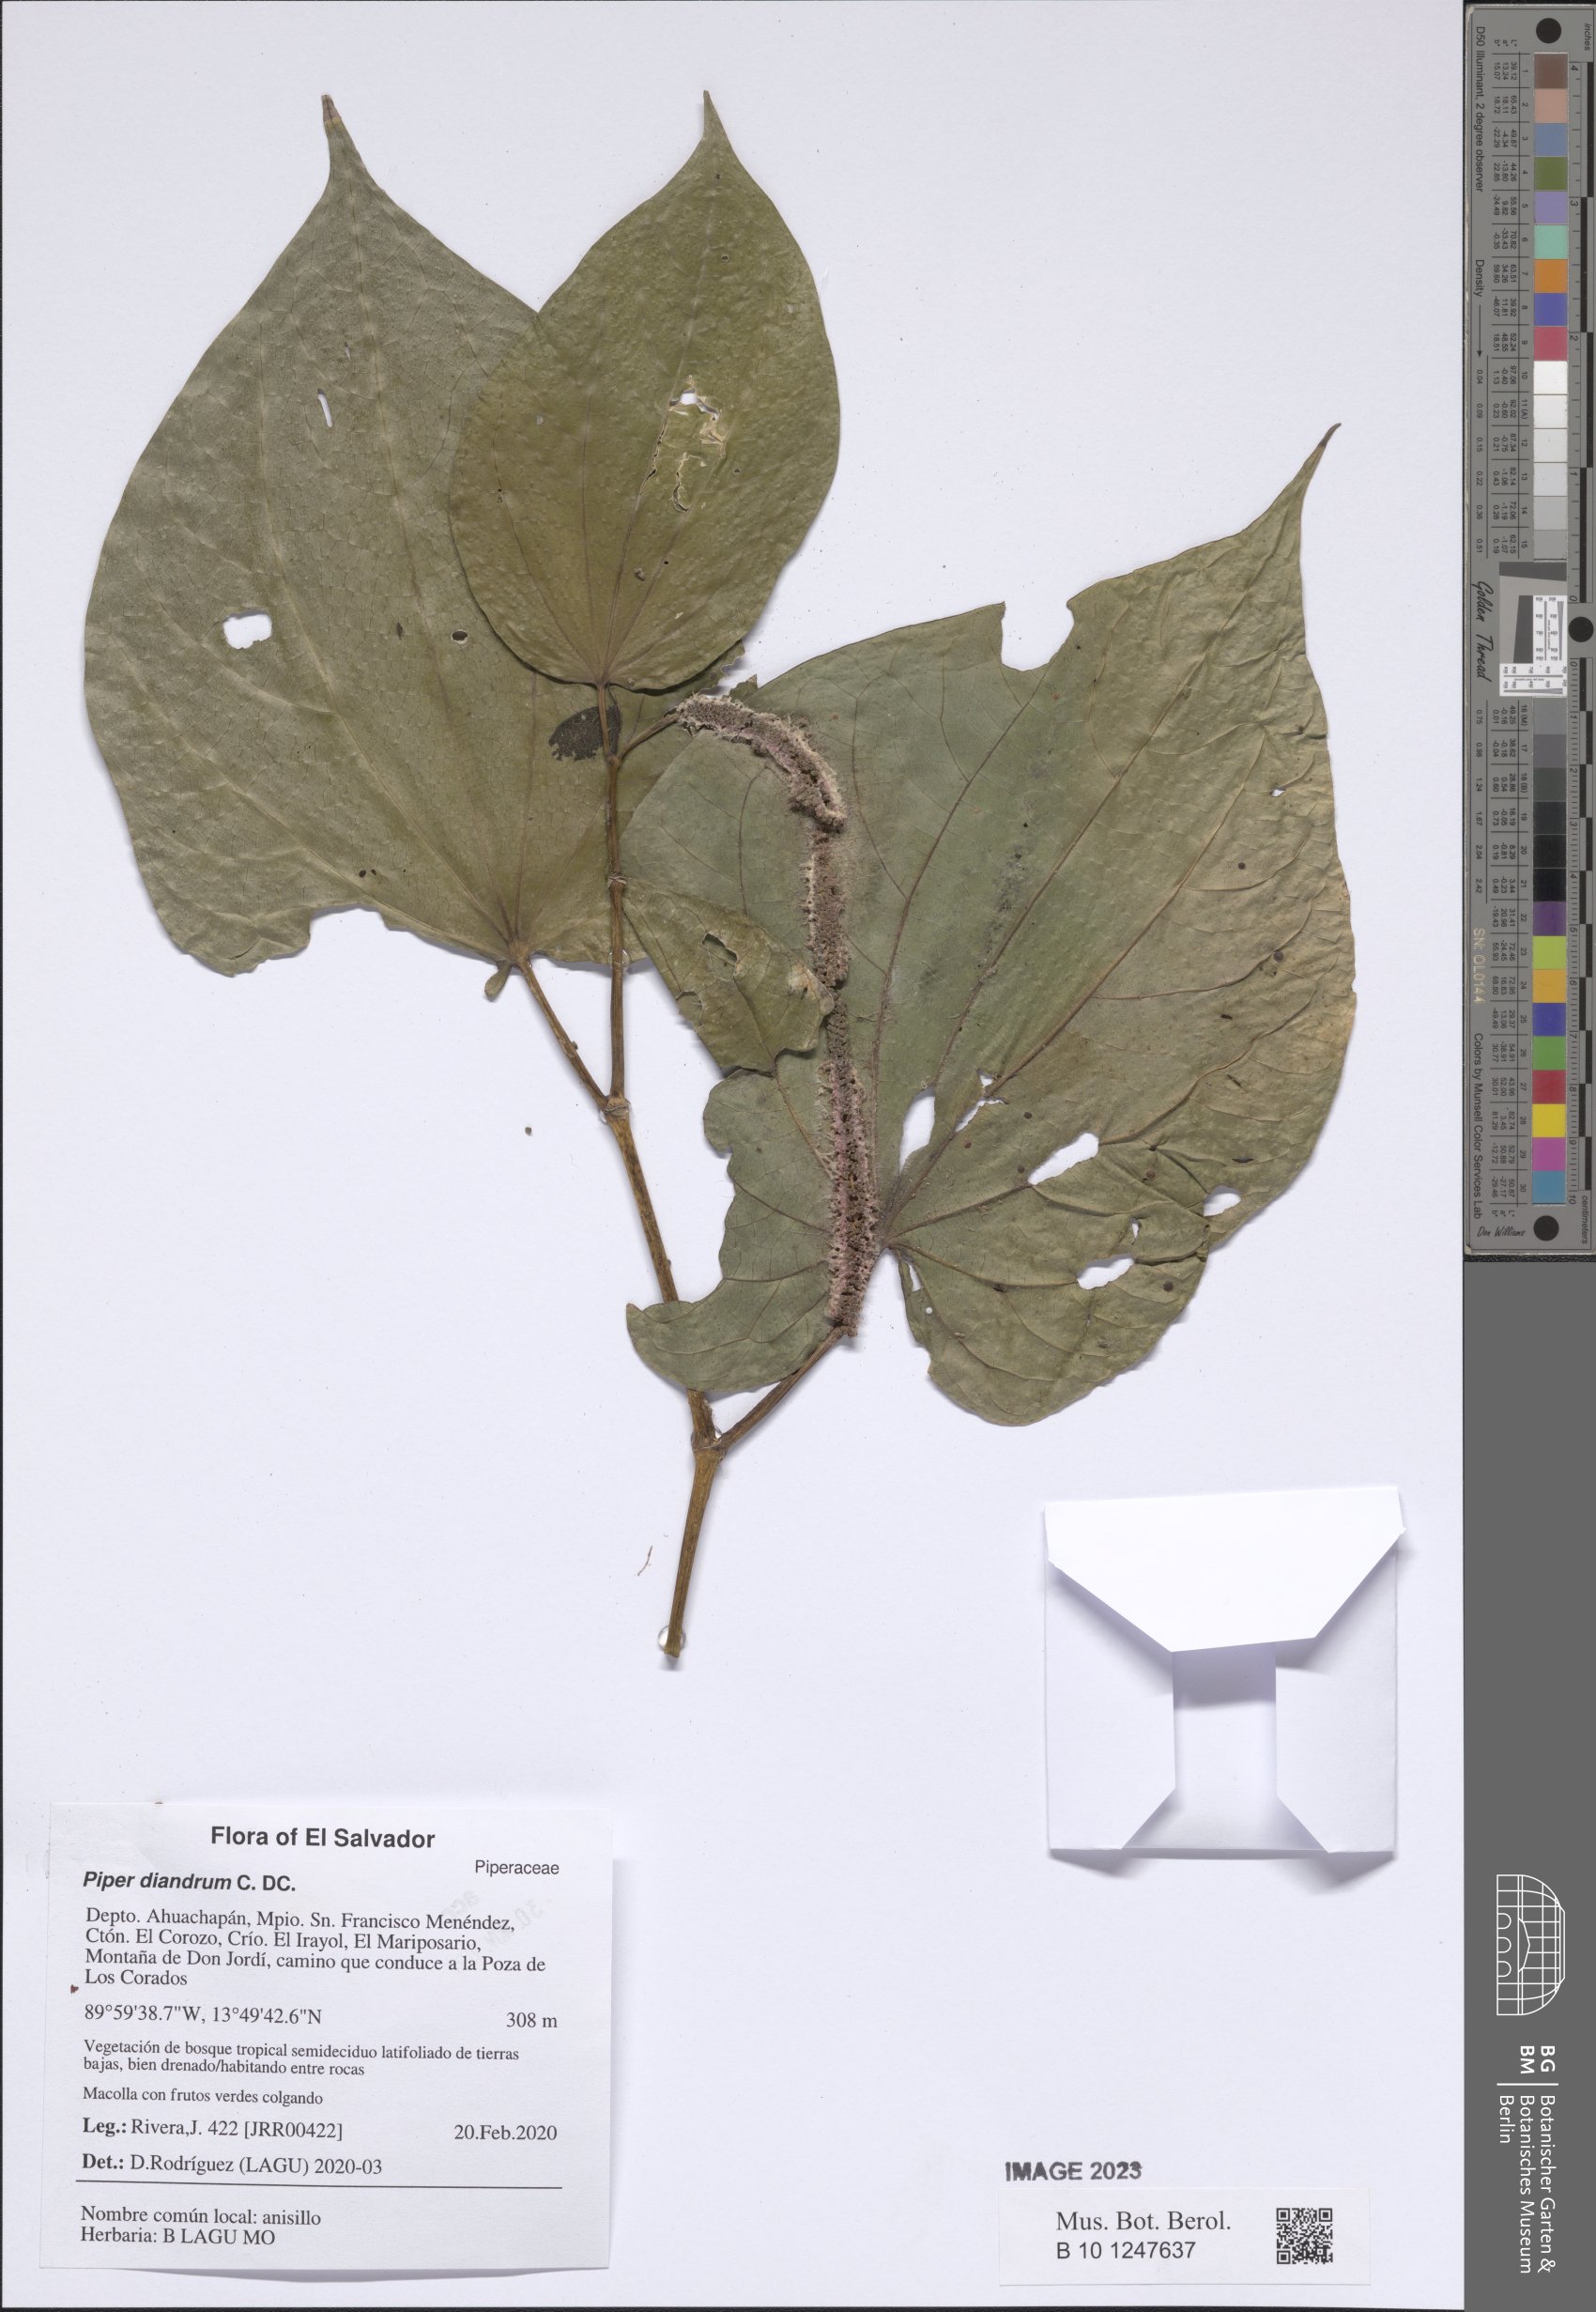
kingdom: Plantae
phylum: Tracheophyta
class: Magnoliopsida
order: Piperales
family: Piperaceae
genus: Piper
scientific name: Piper patulum
